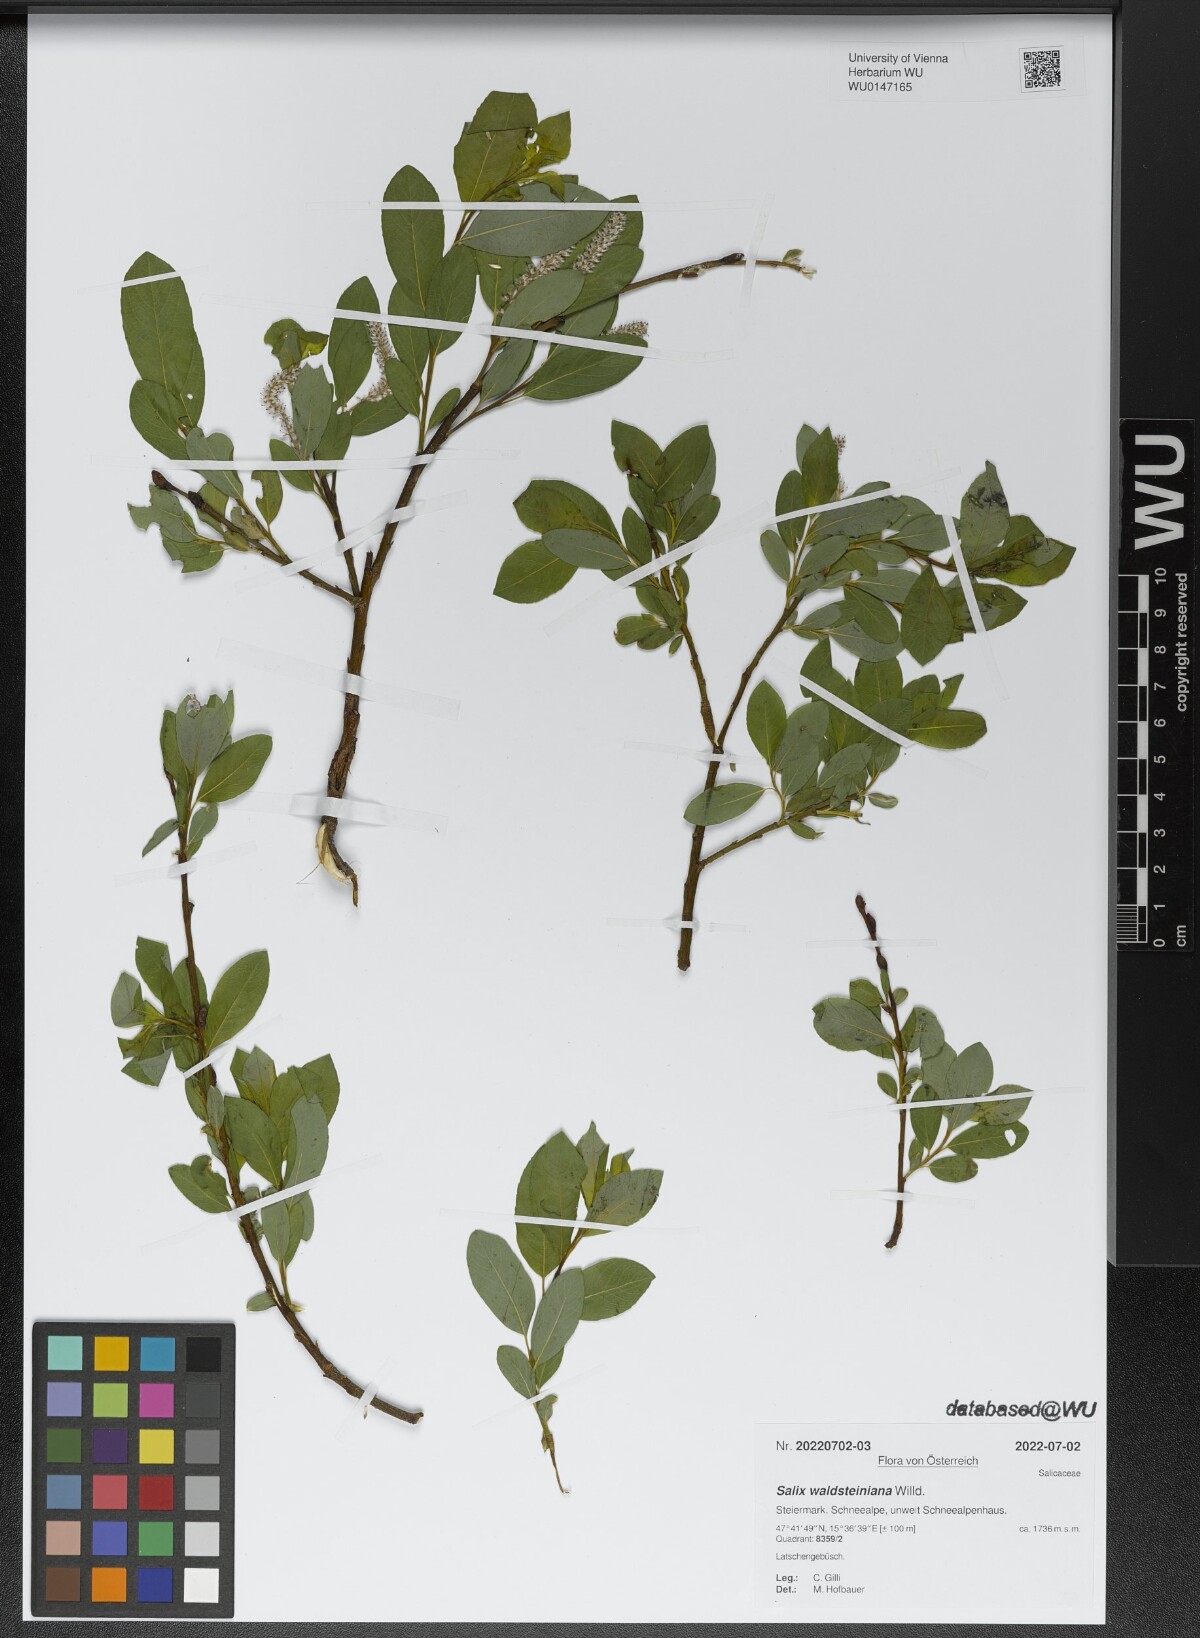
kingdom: Plantae
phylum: Tracheophyta
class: Magnoliopsida
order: Malpighiales
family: Salicaceae
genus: Salix
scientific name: Salix waldsteiniana
